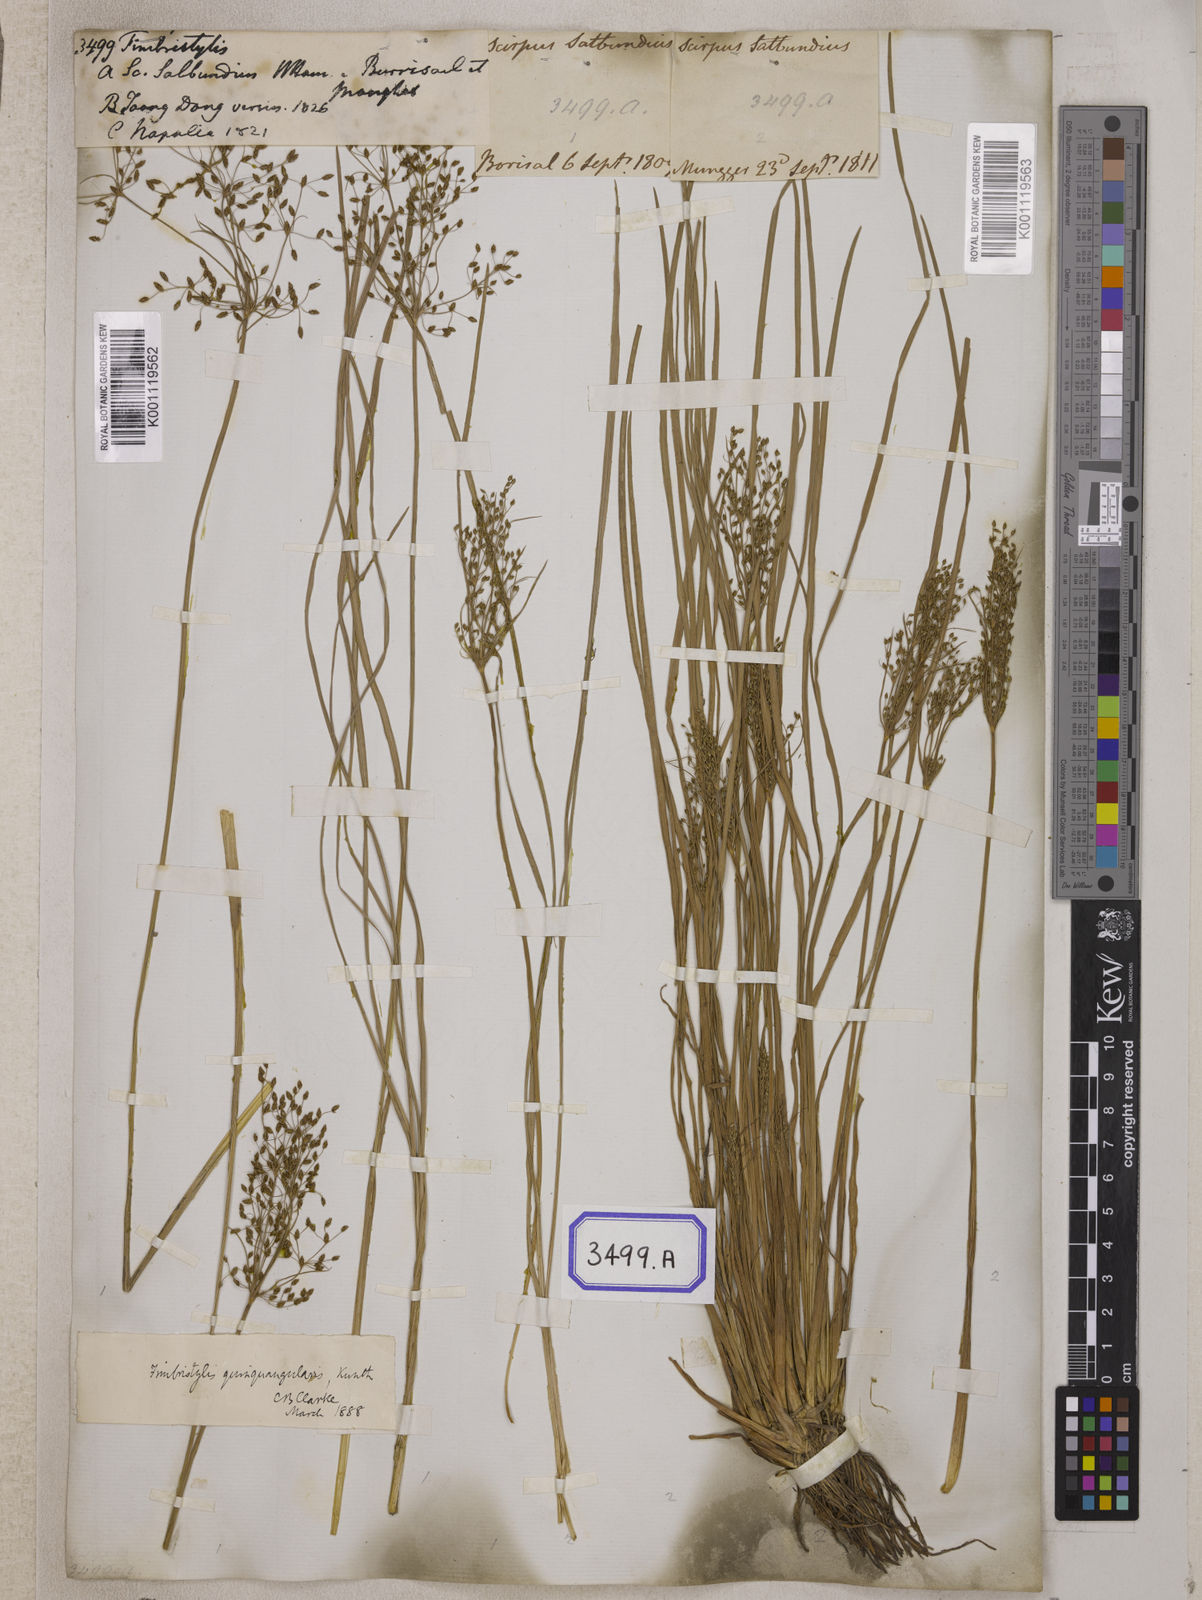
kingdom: Plantae
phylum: Tracheophyta
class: Liliopsida
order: Poales
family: Cyperaceae
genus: Fimbristylis
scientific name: Fimbristylis
